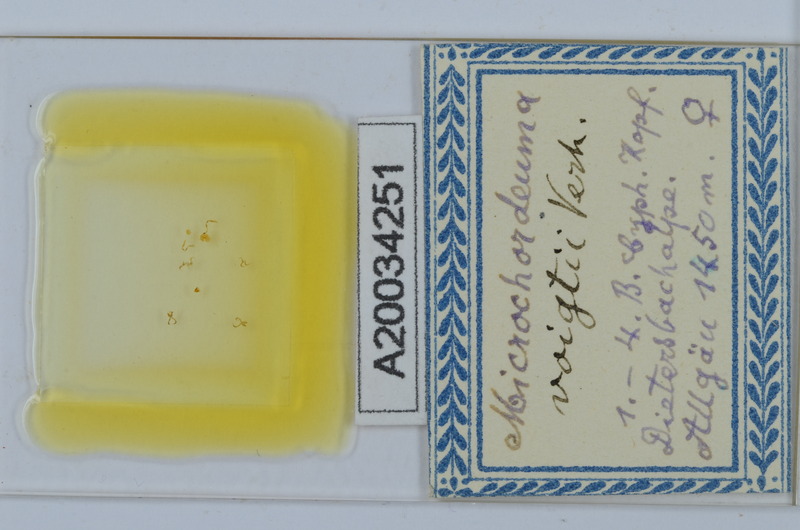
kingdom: Animalia
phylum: Arthropoda
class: Diplopoda
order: Chordeumatida
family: Chordeumatidae
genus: Melogona
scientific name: Melogona voigtii
